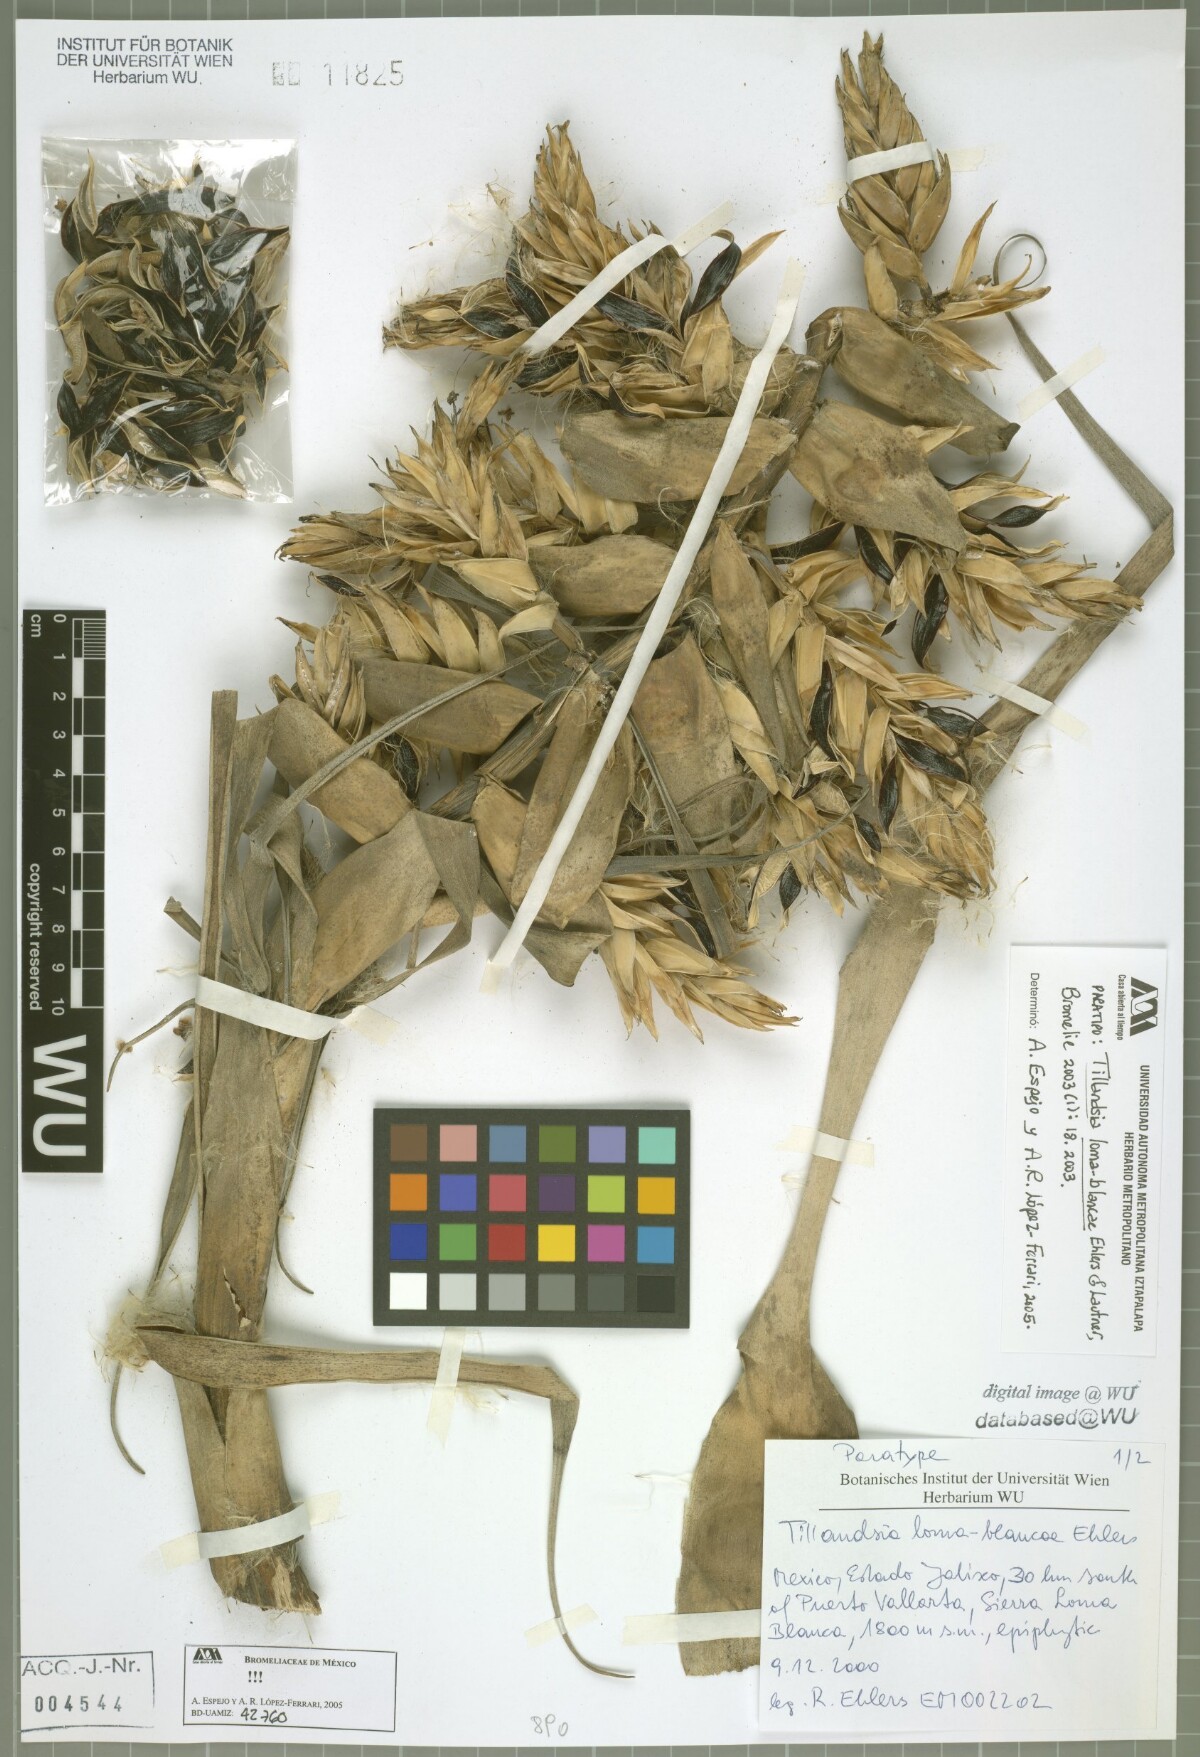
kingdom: Plantae
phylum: Tracheophyta
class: Liliopsida
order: Poales
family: Bromeliaceae
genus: Tillandsia
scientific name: Tillandsia loma-blancae
